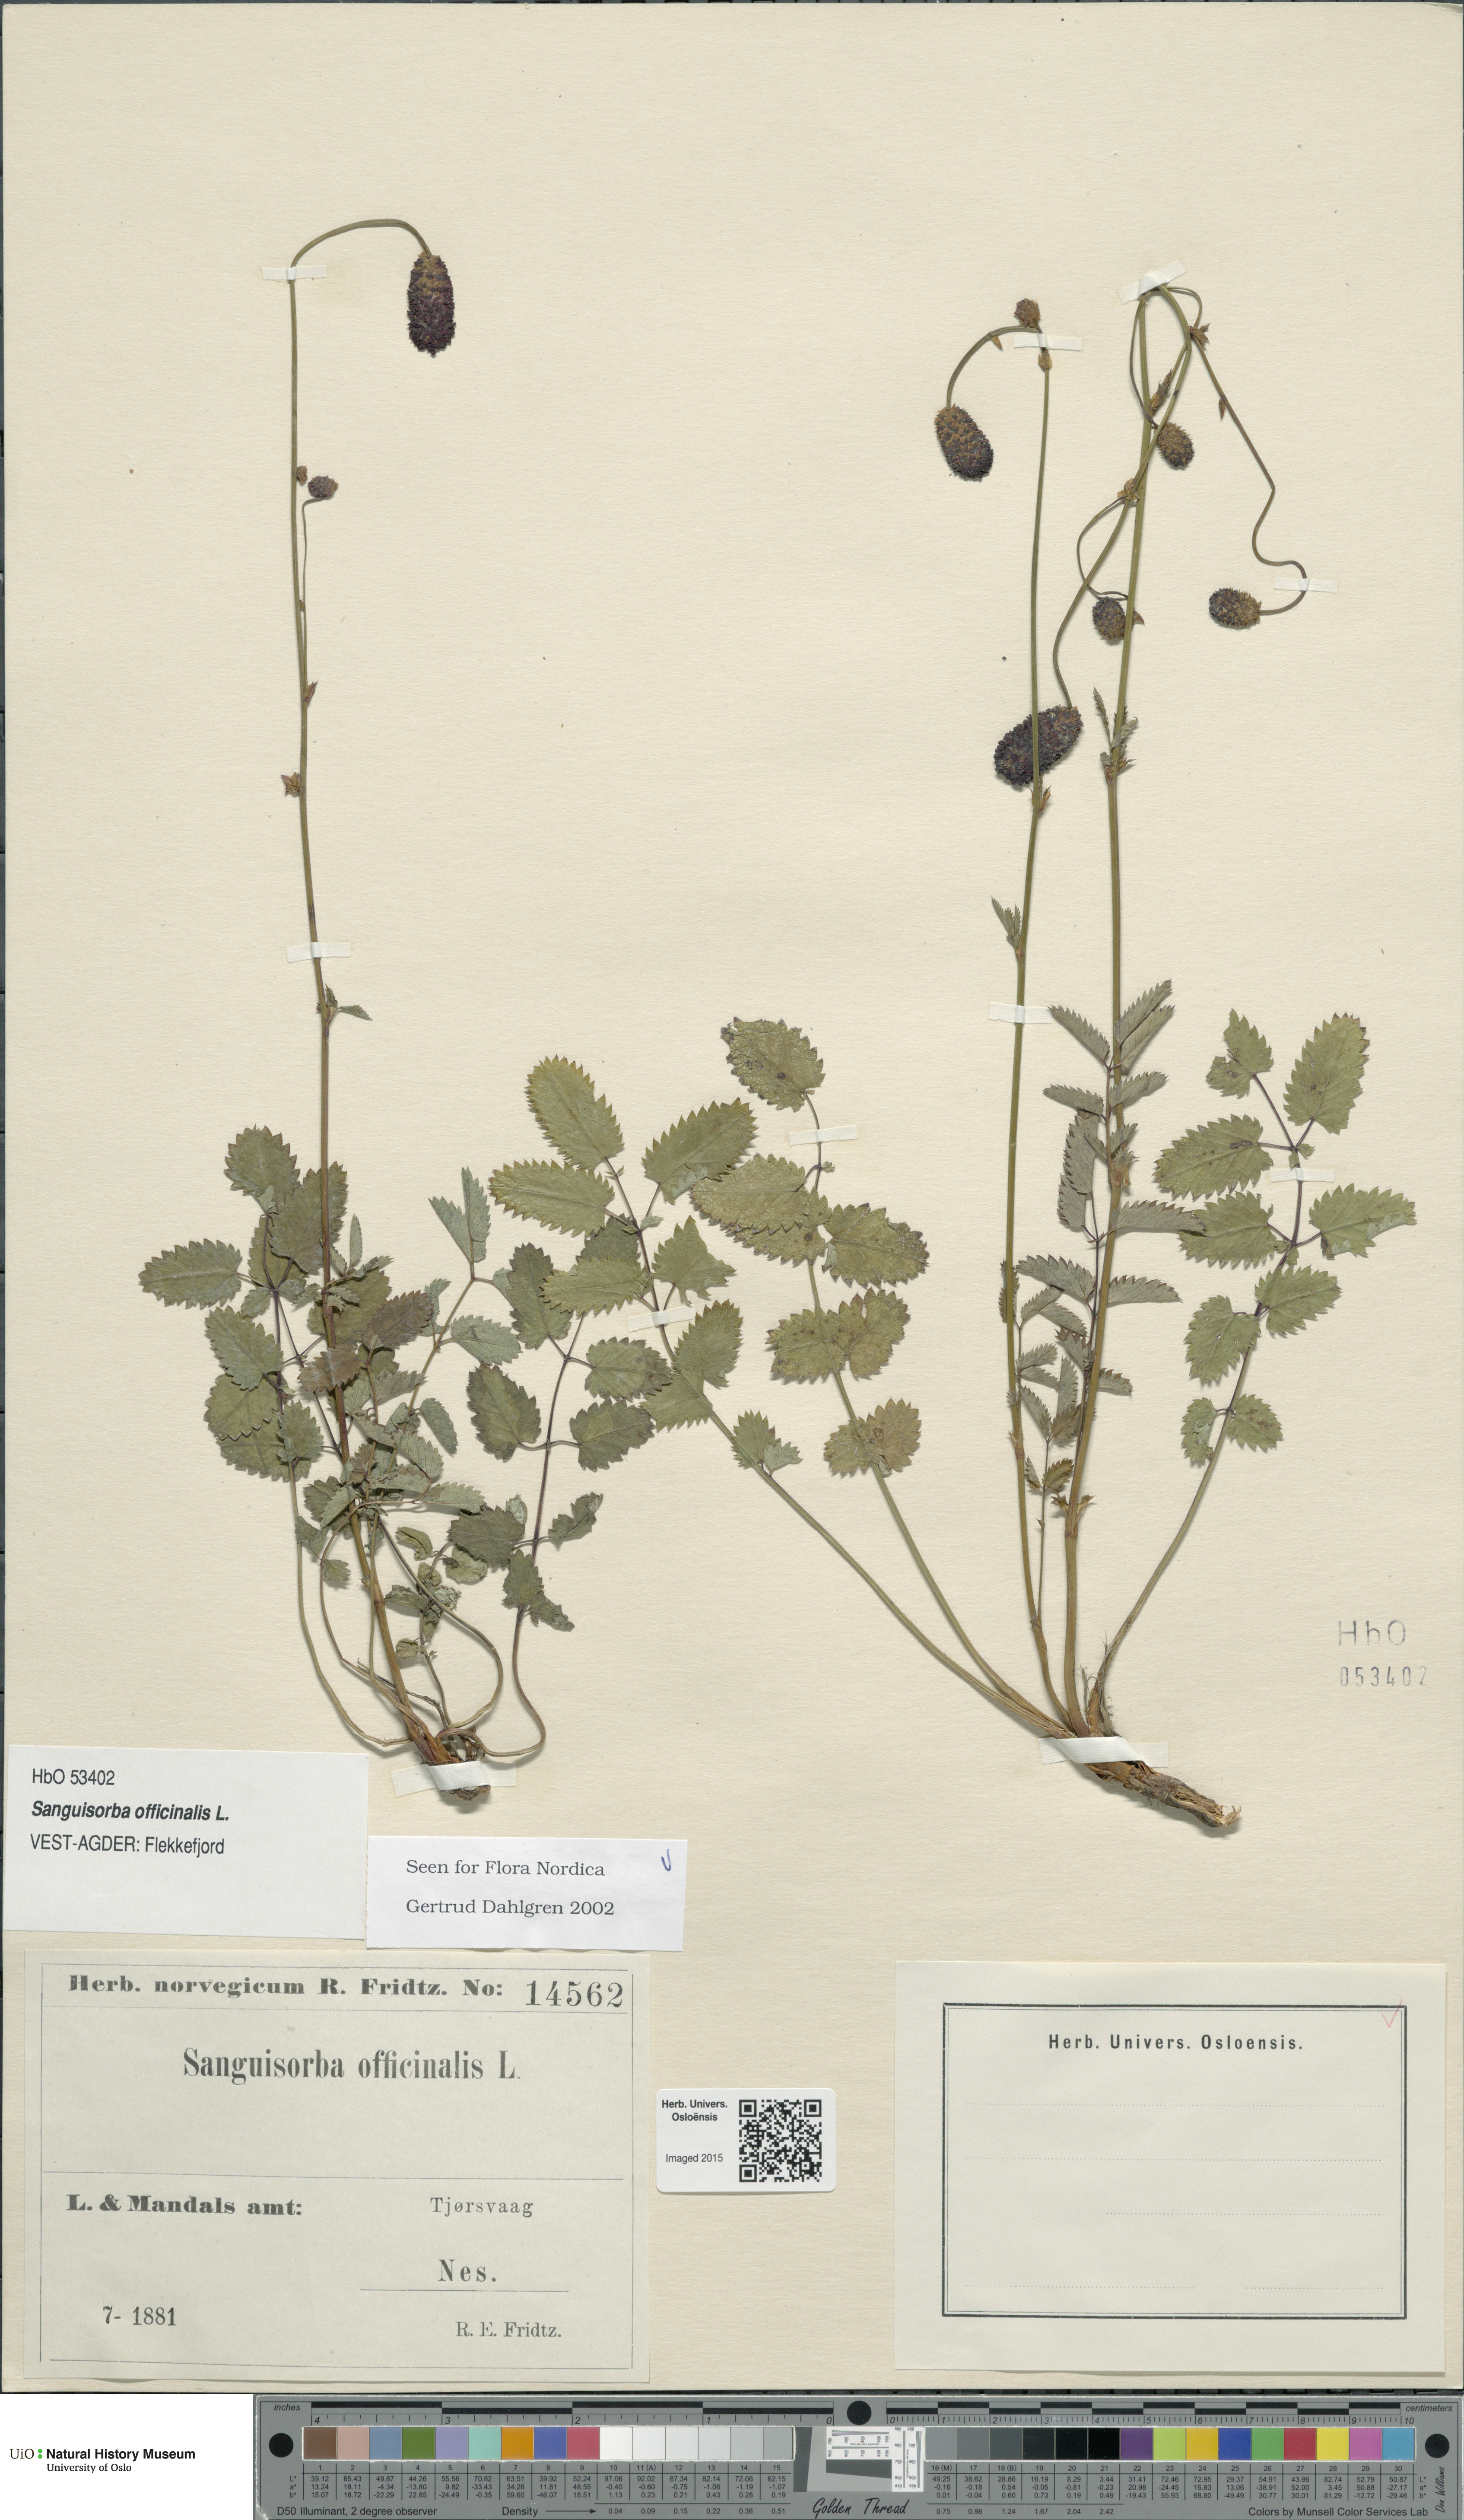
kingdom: Plantae
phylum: Tracheophyta
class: Magnoliopsida
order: Rosales
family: Rosaceae
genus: Sanguisorba
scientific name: Sanguisorba officinalis
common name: Great burnet
